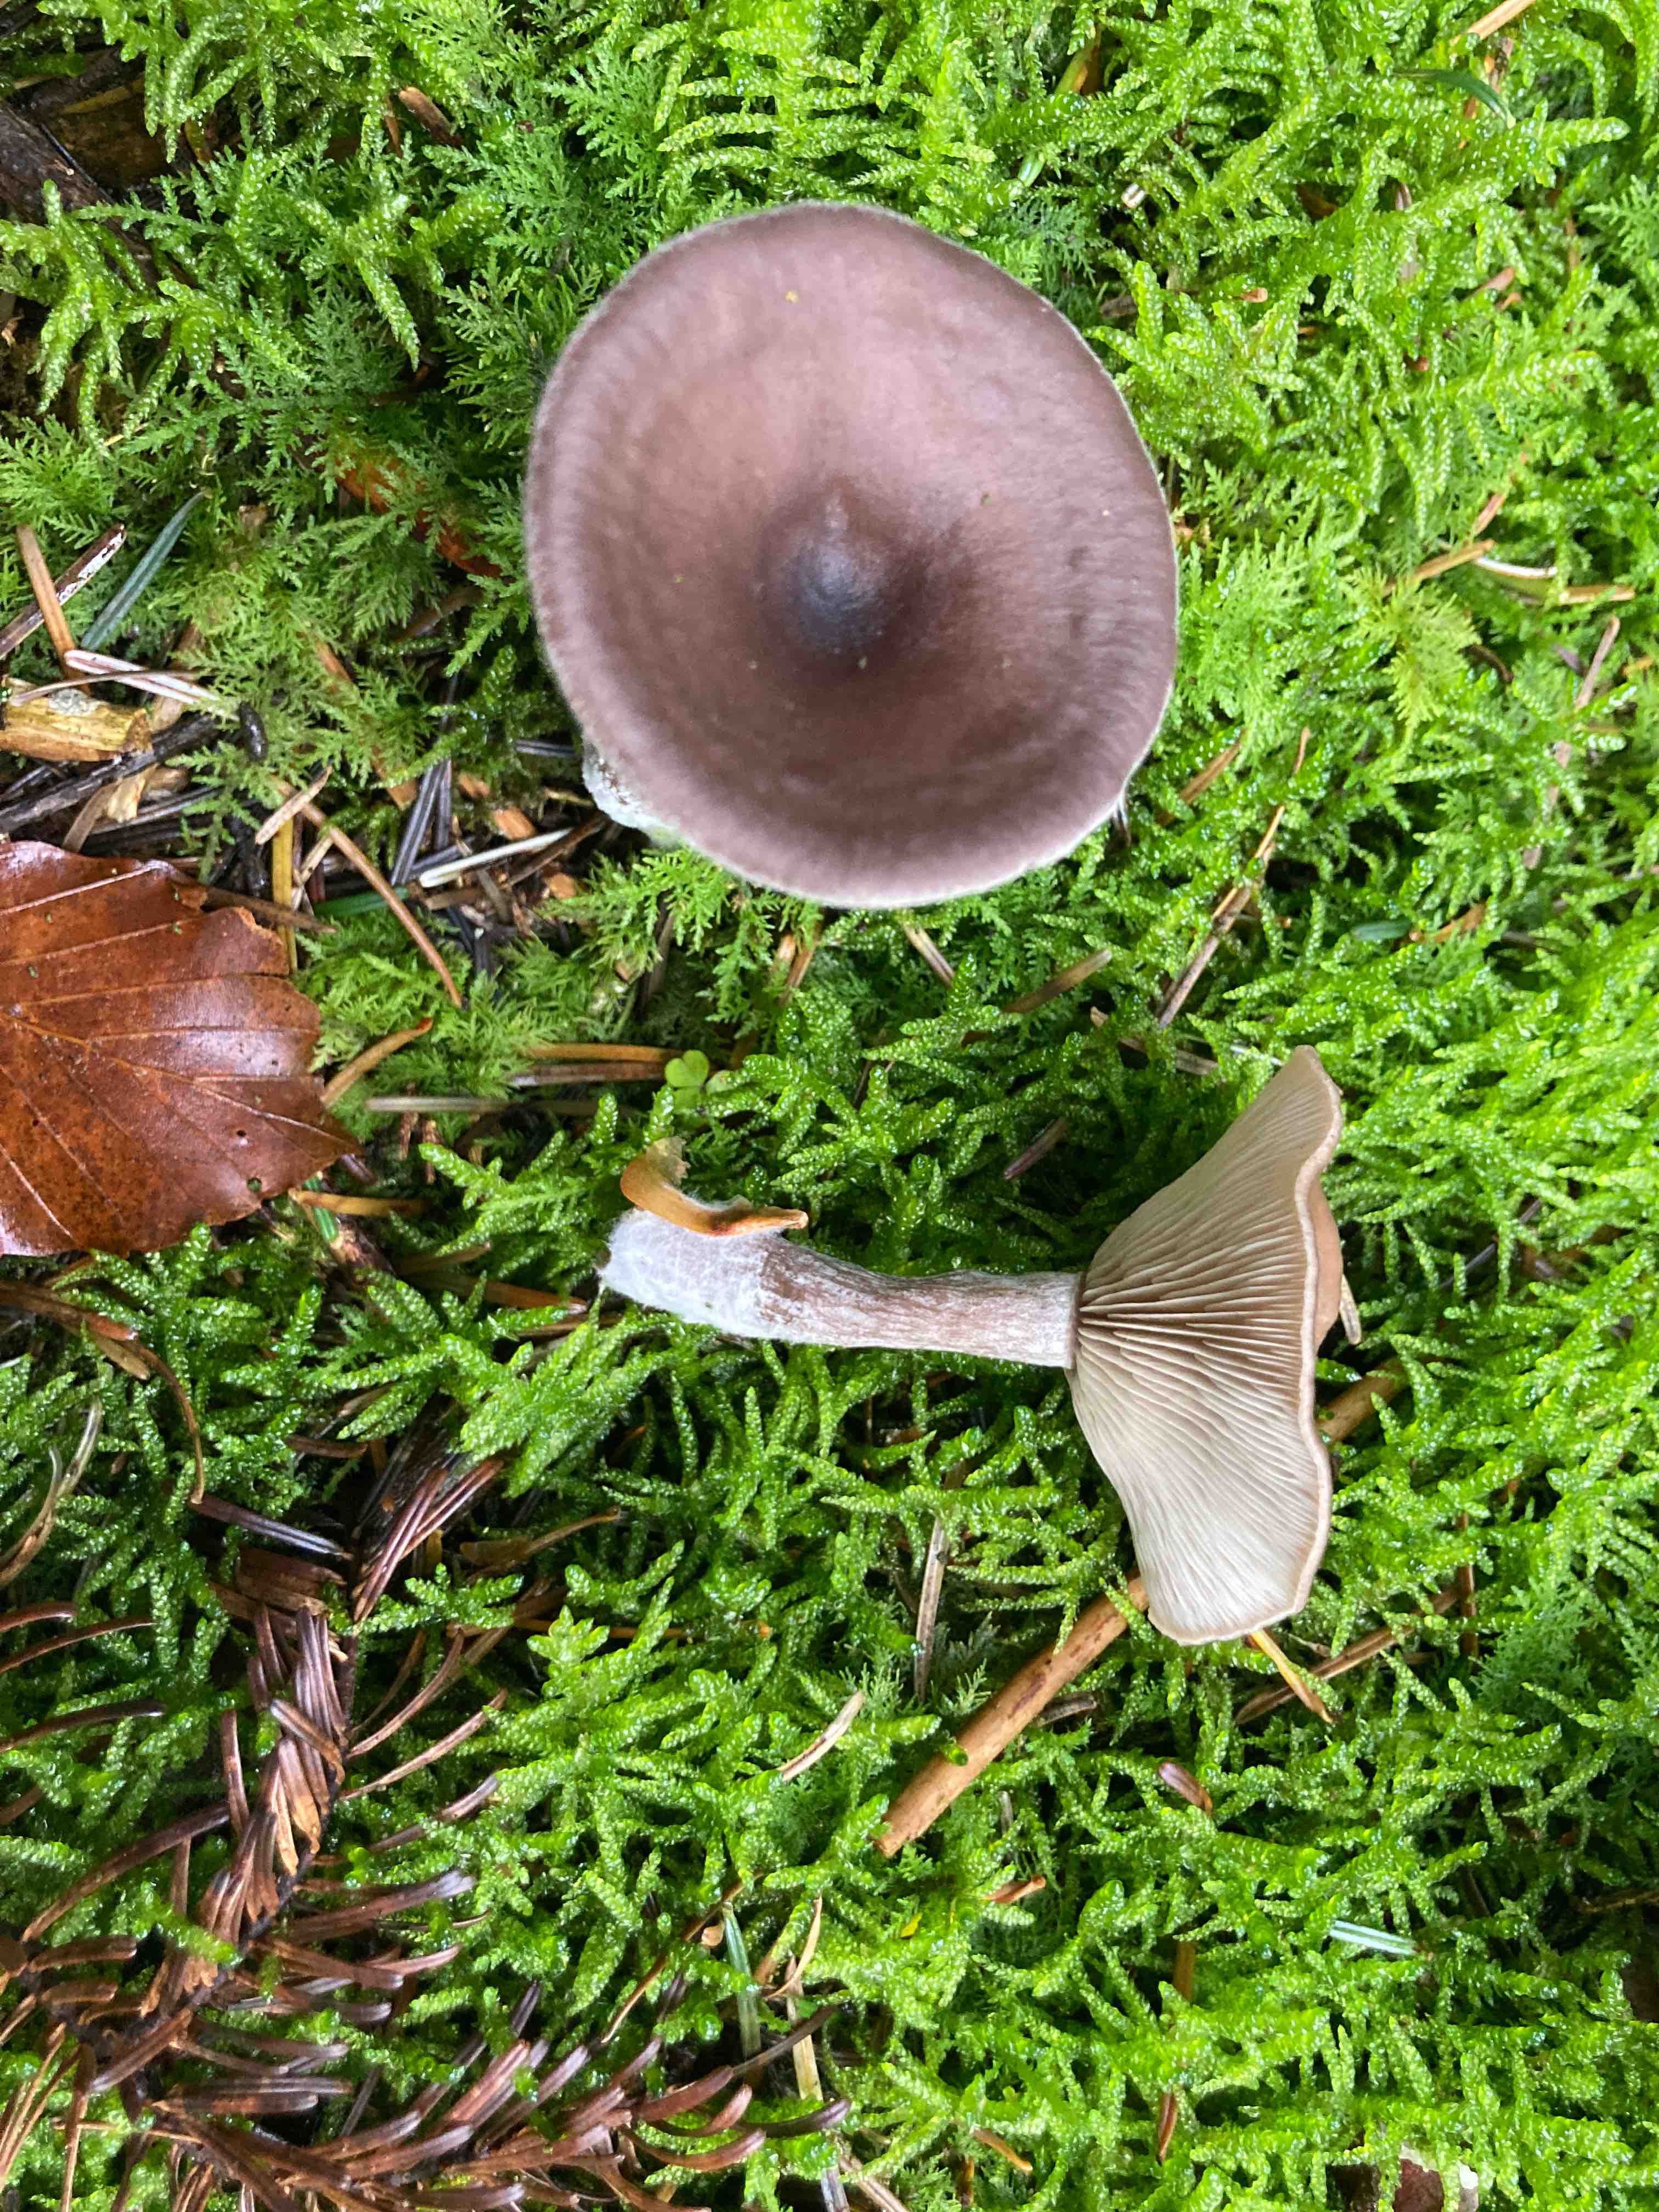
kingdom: Fungi
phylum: Basidiomycota
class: Agaricomycetes
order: Agaricales
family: Pseudoclitocybaceae
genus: Pseudoclitocybe
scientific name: Pseudoclitocybe cyathiformis
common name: almindelig bægertragthat
